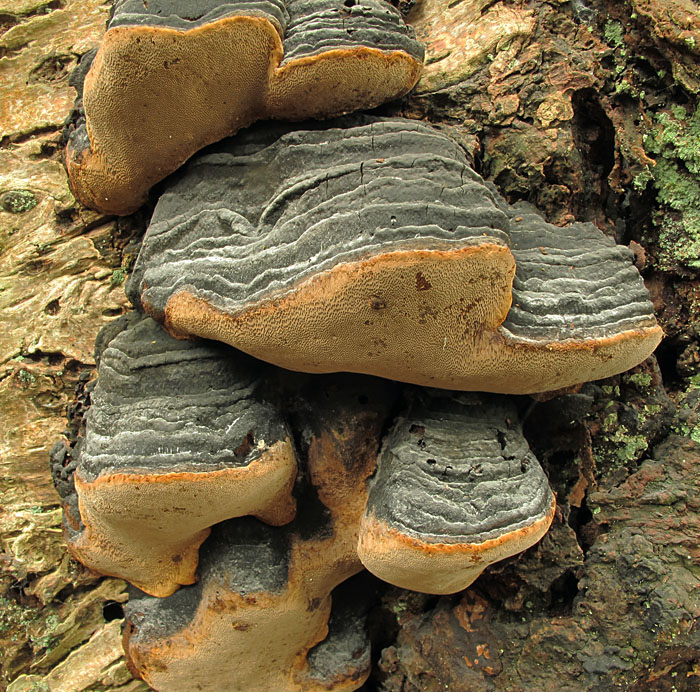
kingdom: Fungi
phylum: Basidiomycota
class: Agaricomycetes
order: Hymenochaetales
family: Hymenochaetaceae
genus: Phellinus
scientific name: Phellinus lundellii
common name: birke-ildporesvamp
